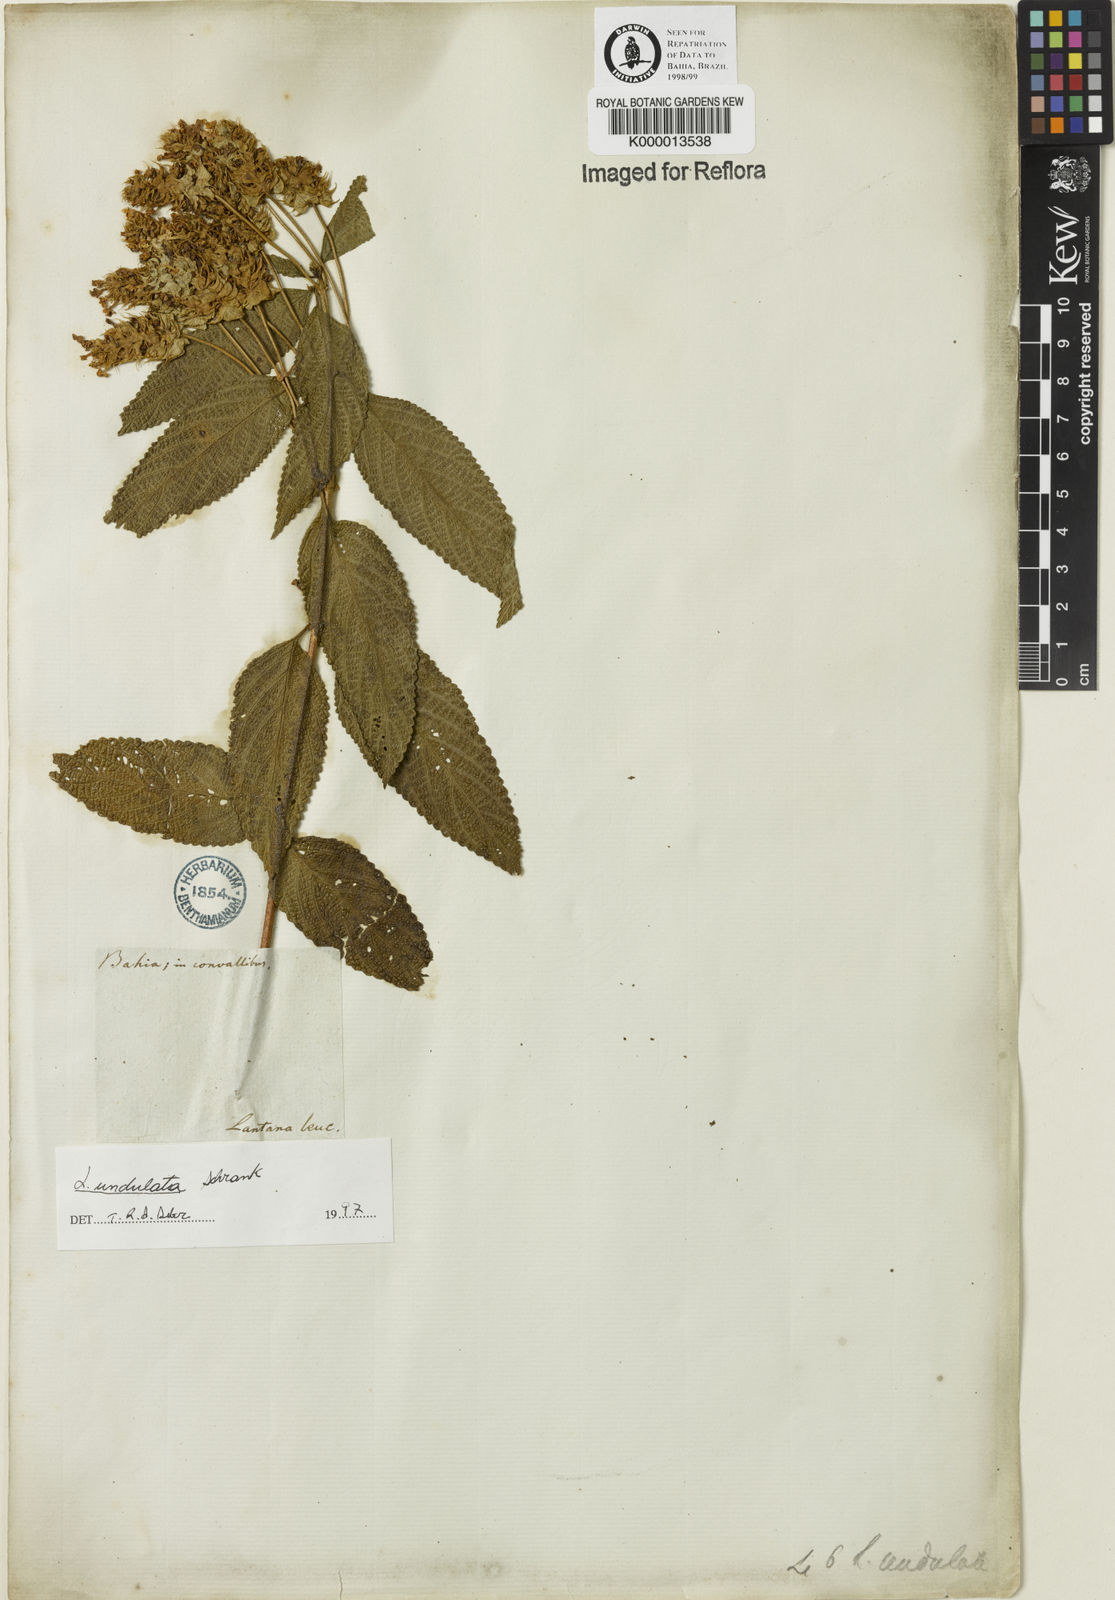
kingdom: Plantae
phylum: Tracheophyta
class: Magnoliopsida
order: Lamiales
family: Verbenaceae
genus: Lantana
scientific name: Lantana undulata
